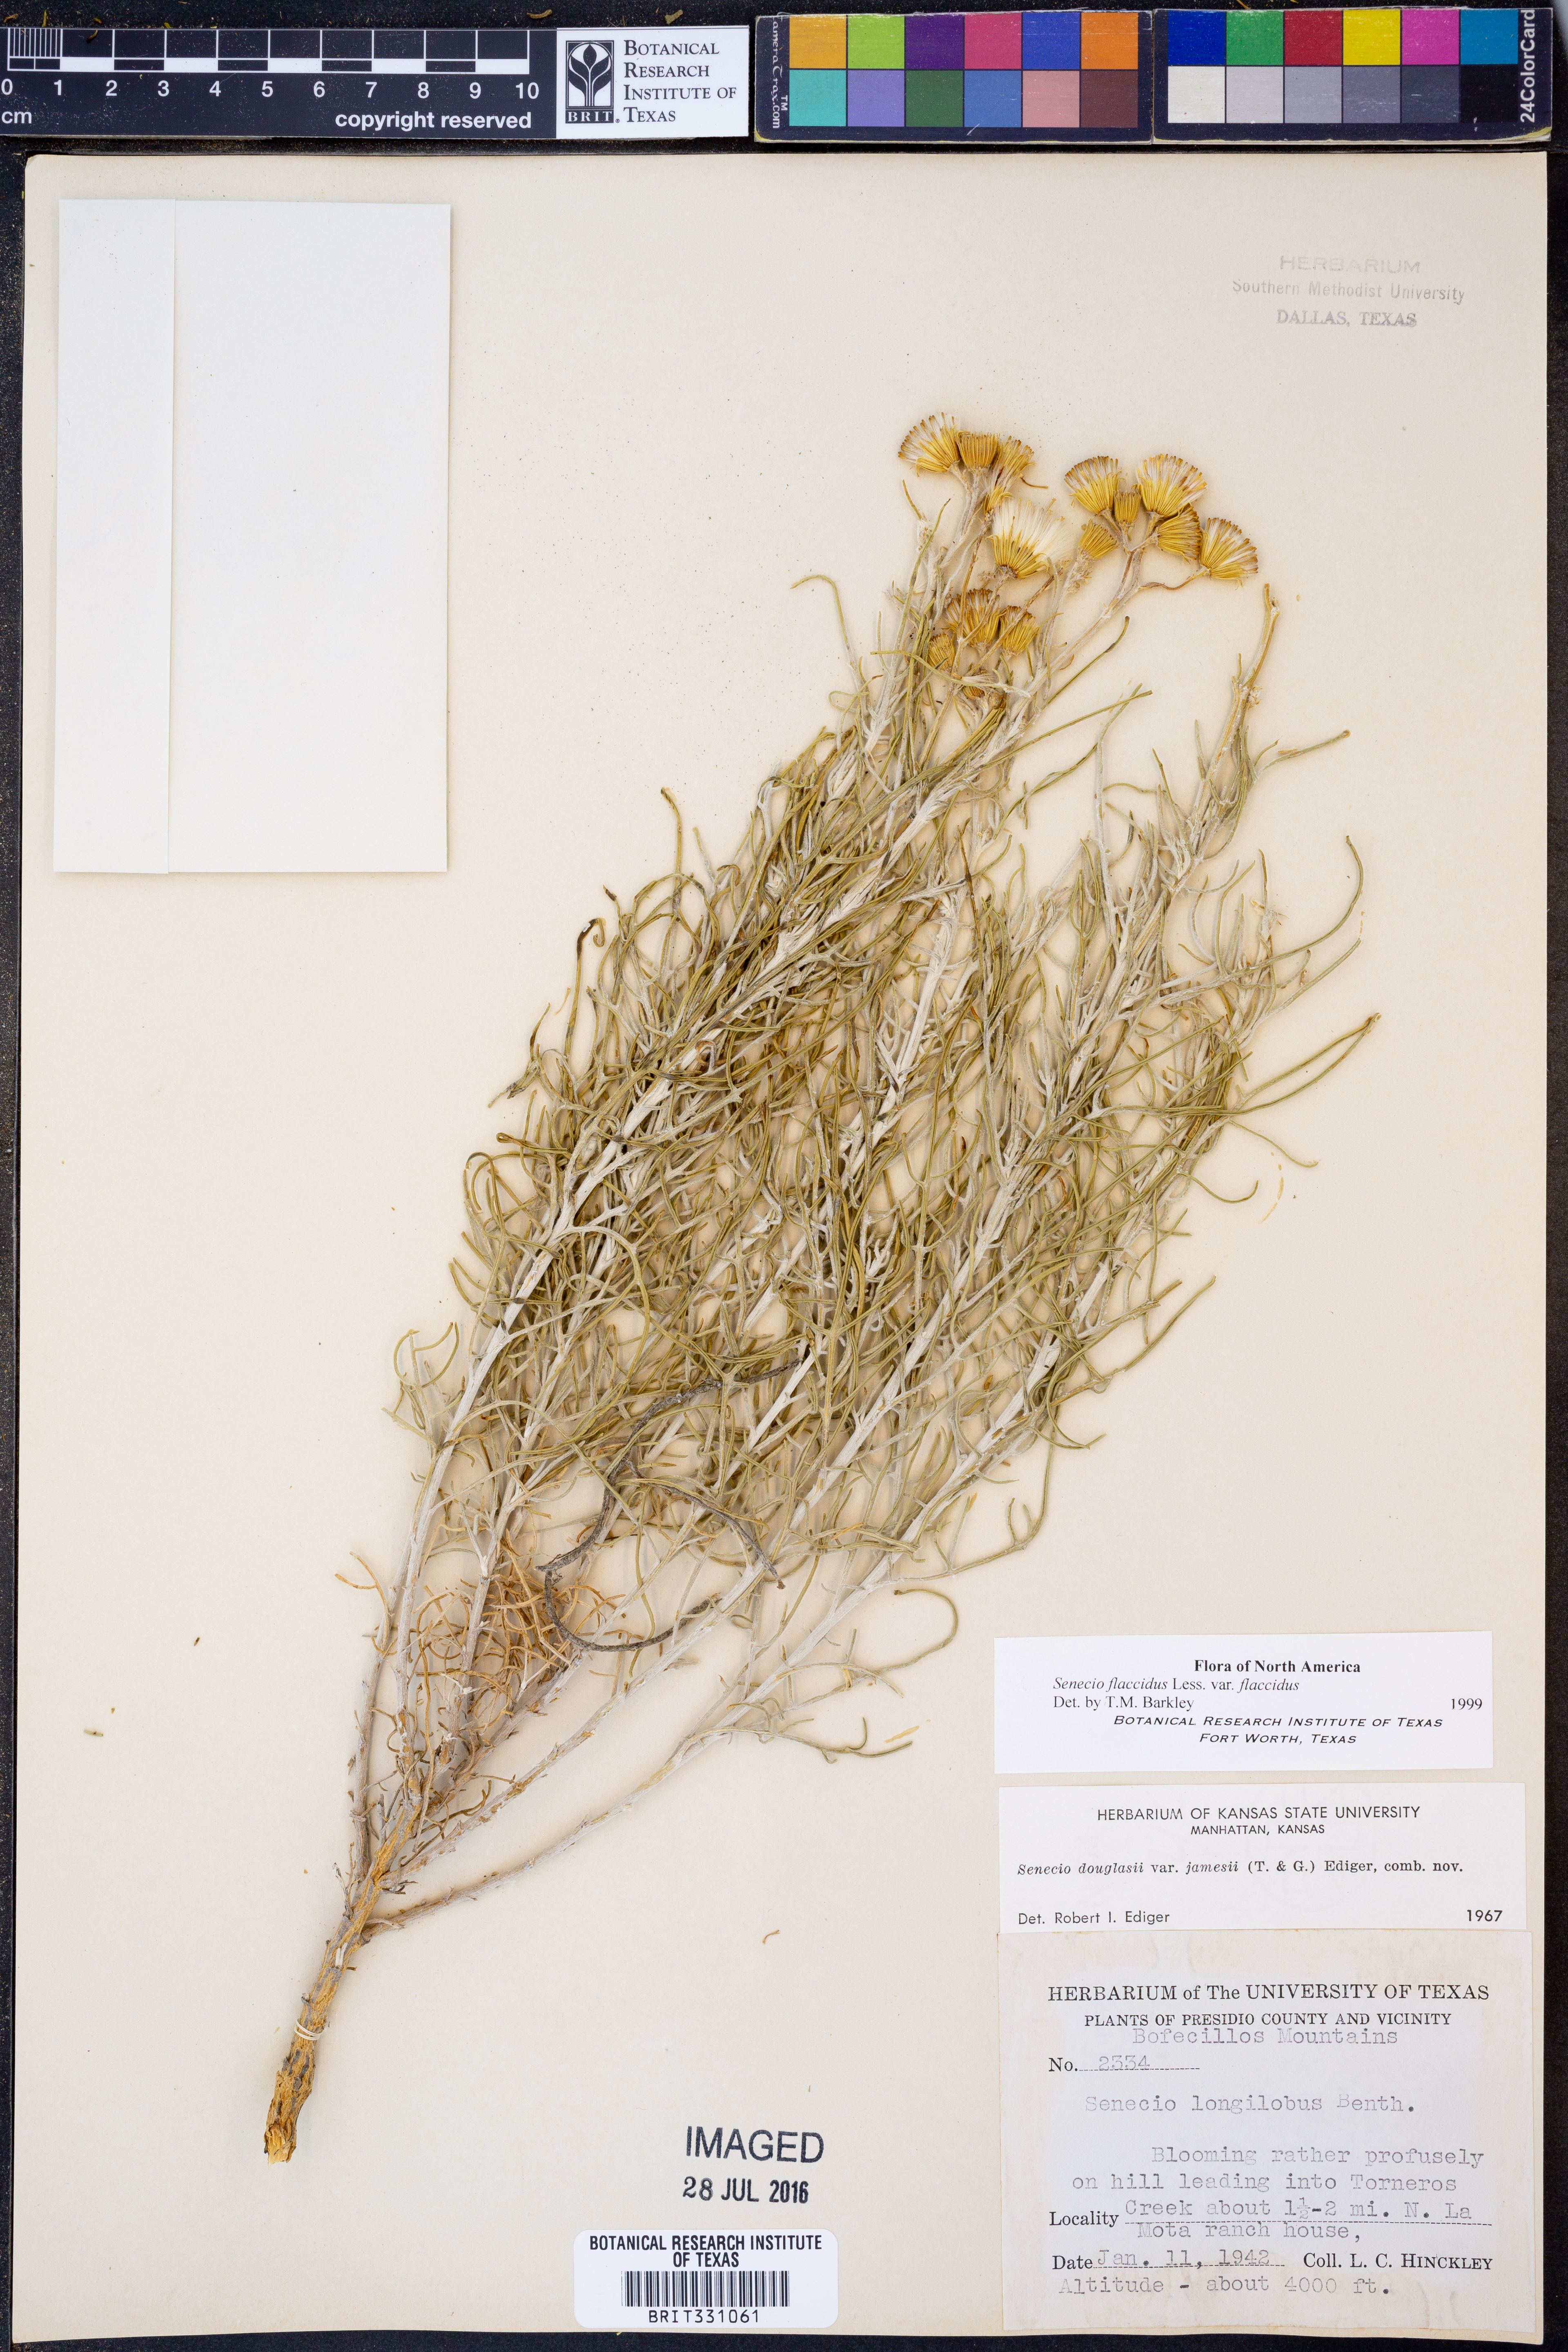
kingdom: Plantae
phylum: Tracheophyta
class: Magnoliopsida
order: Asterales
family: Asteraceae
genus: Senecio
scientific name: Senecio flaccidus
